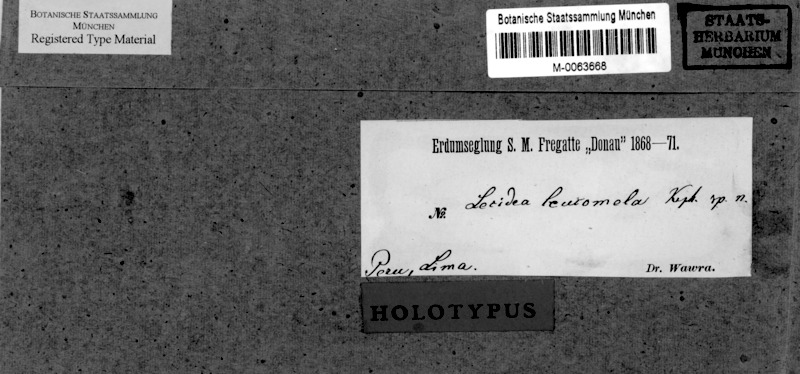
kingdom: Fungi
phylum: Ascomycota
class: Lecanoromycetes
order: Lecanorales
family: Lecanoraceae
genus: Lecanora
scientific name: Lecanora
